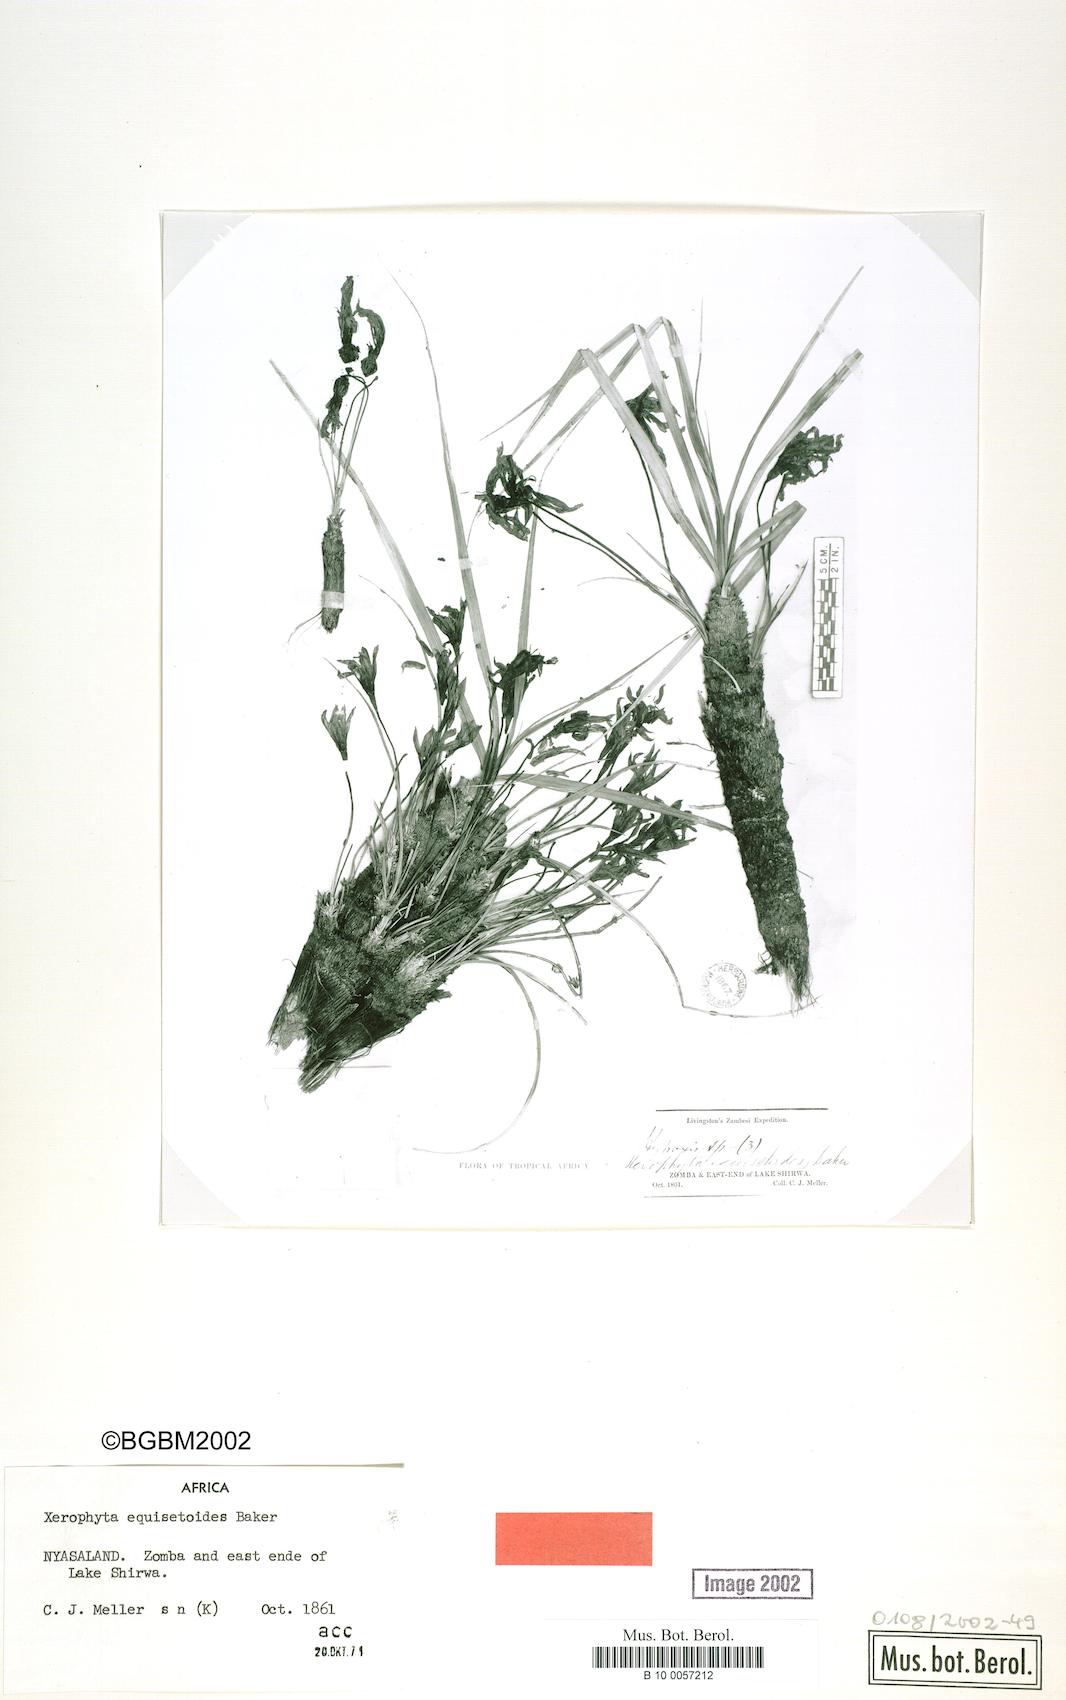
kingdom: Plantae
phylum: Tracheophyta
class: Liliopsida
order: Pandanales
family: Velloziaceae
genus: Xerophyta
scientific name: Xerophyta equisetoides
